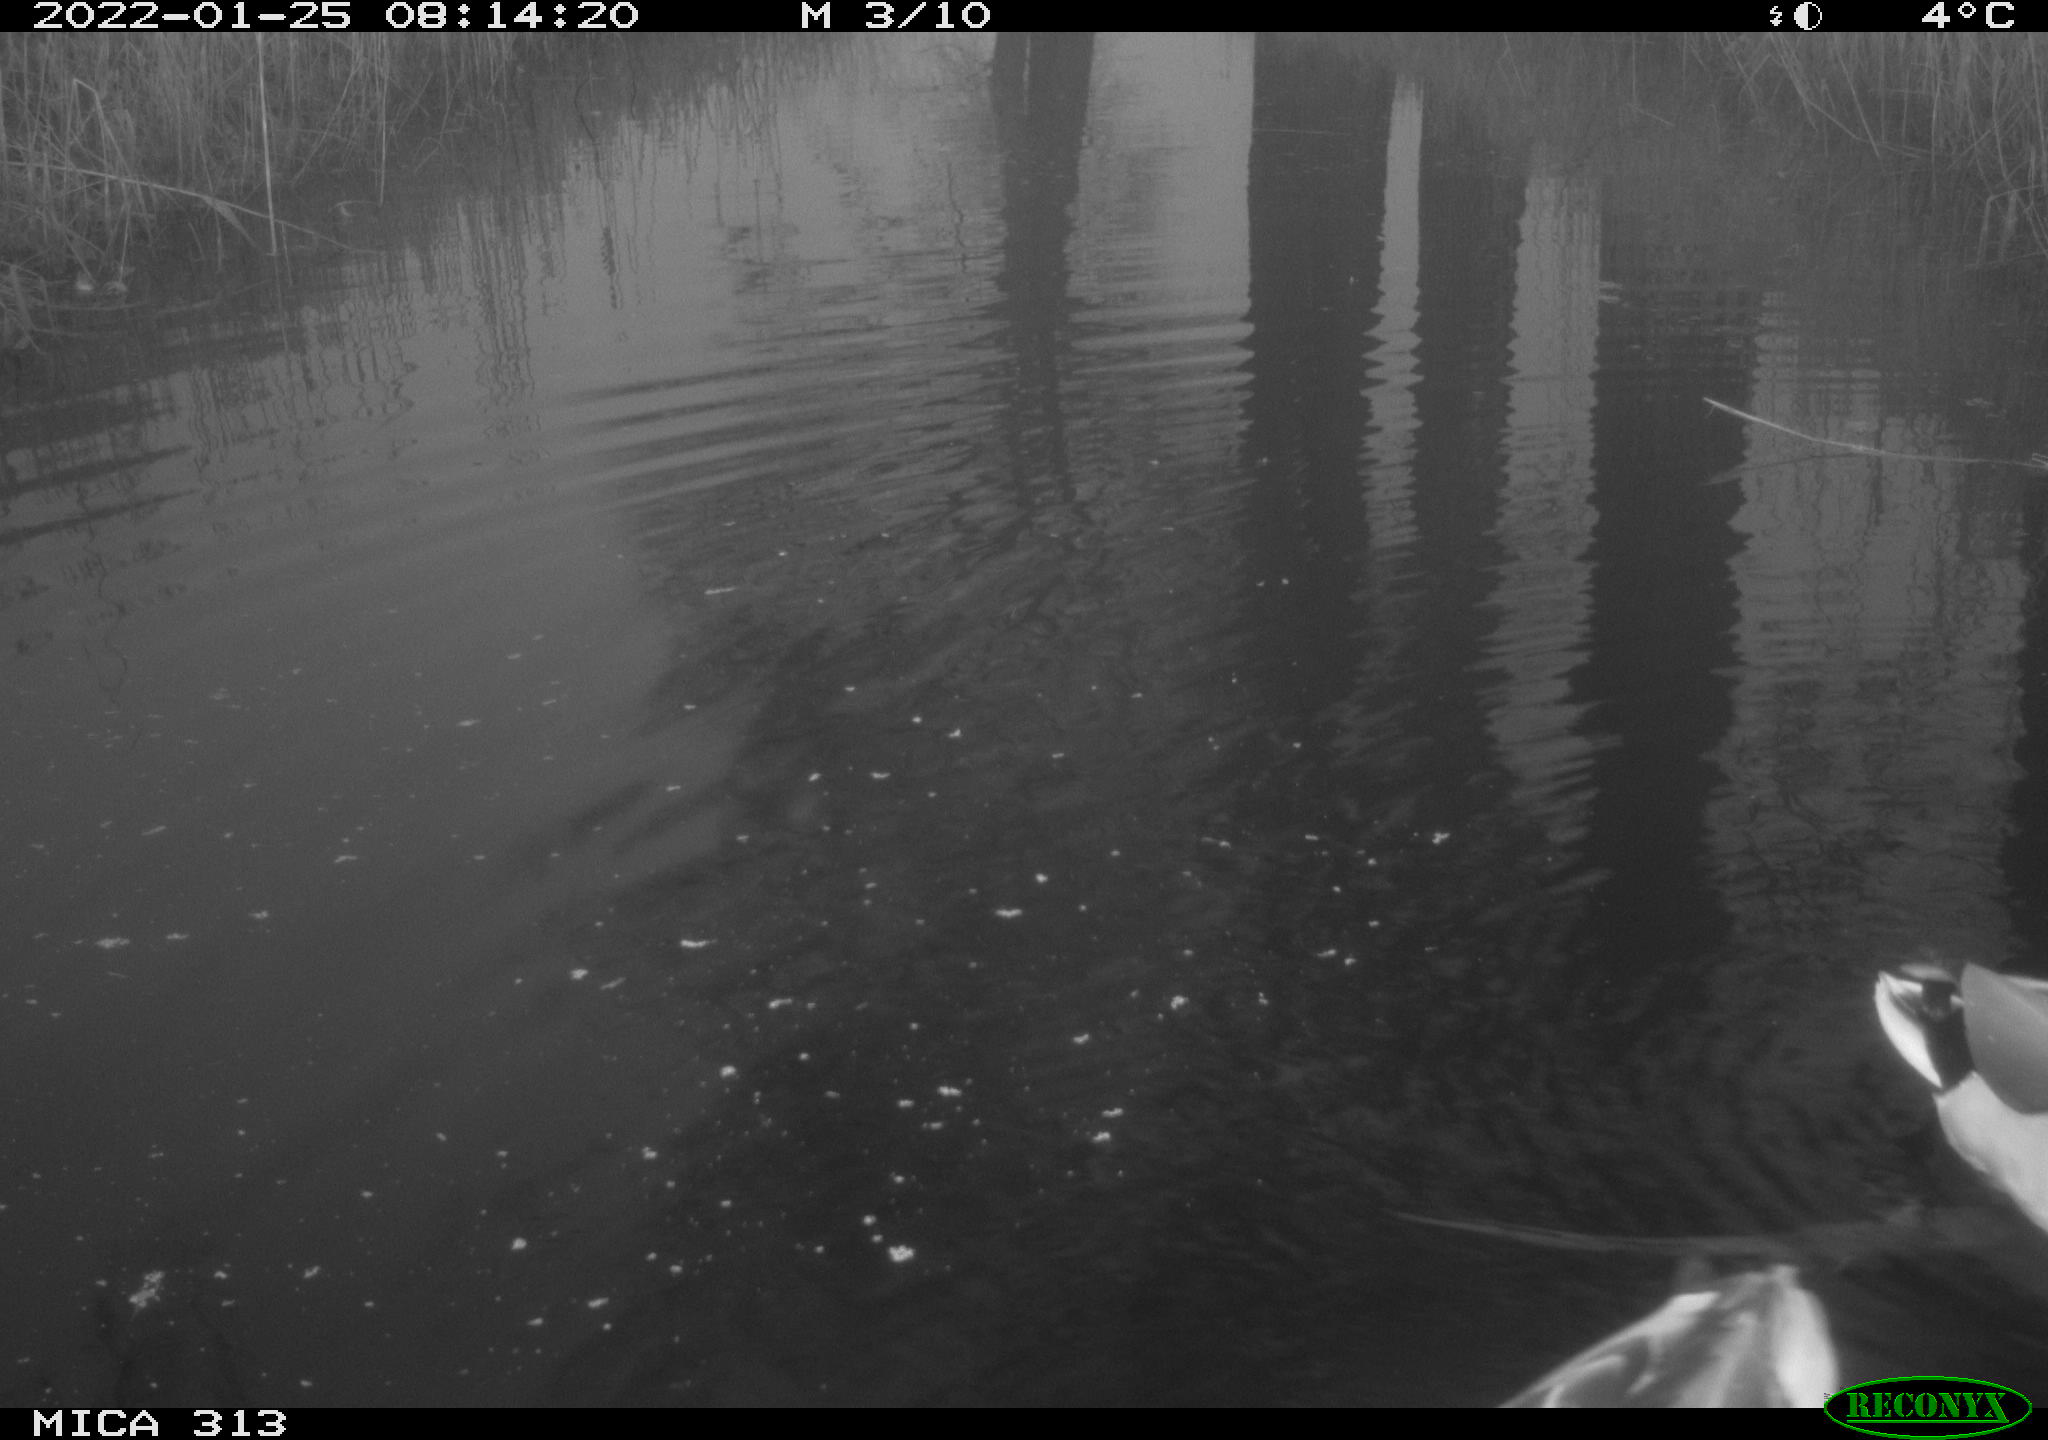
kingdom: Animalia
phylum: Chordata
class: Aves
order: Anseriformes
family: Anatidae
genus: Anas
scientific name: Anas
